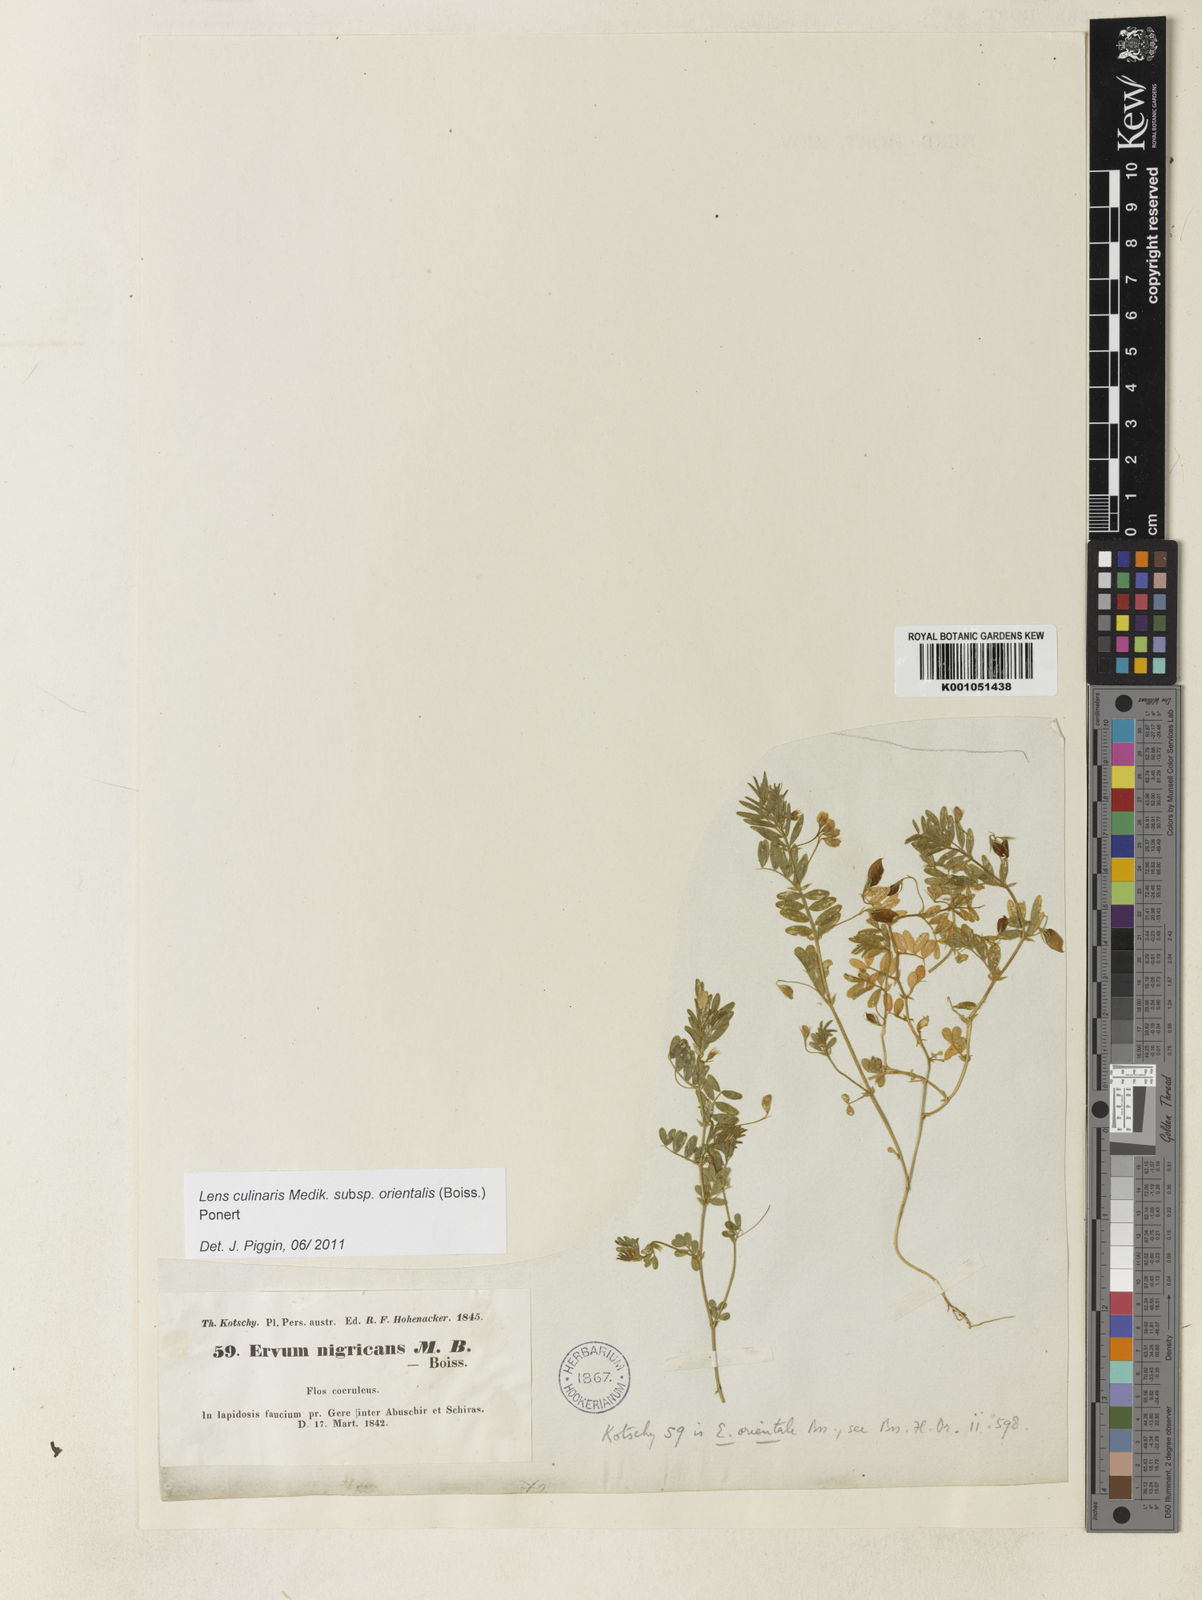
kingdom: Plantae
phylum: Tracheophyta
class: Magnoliopsida
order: Fabales
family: Fabaceae
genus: Vicia
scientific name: Vicia orientalis
